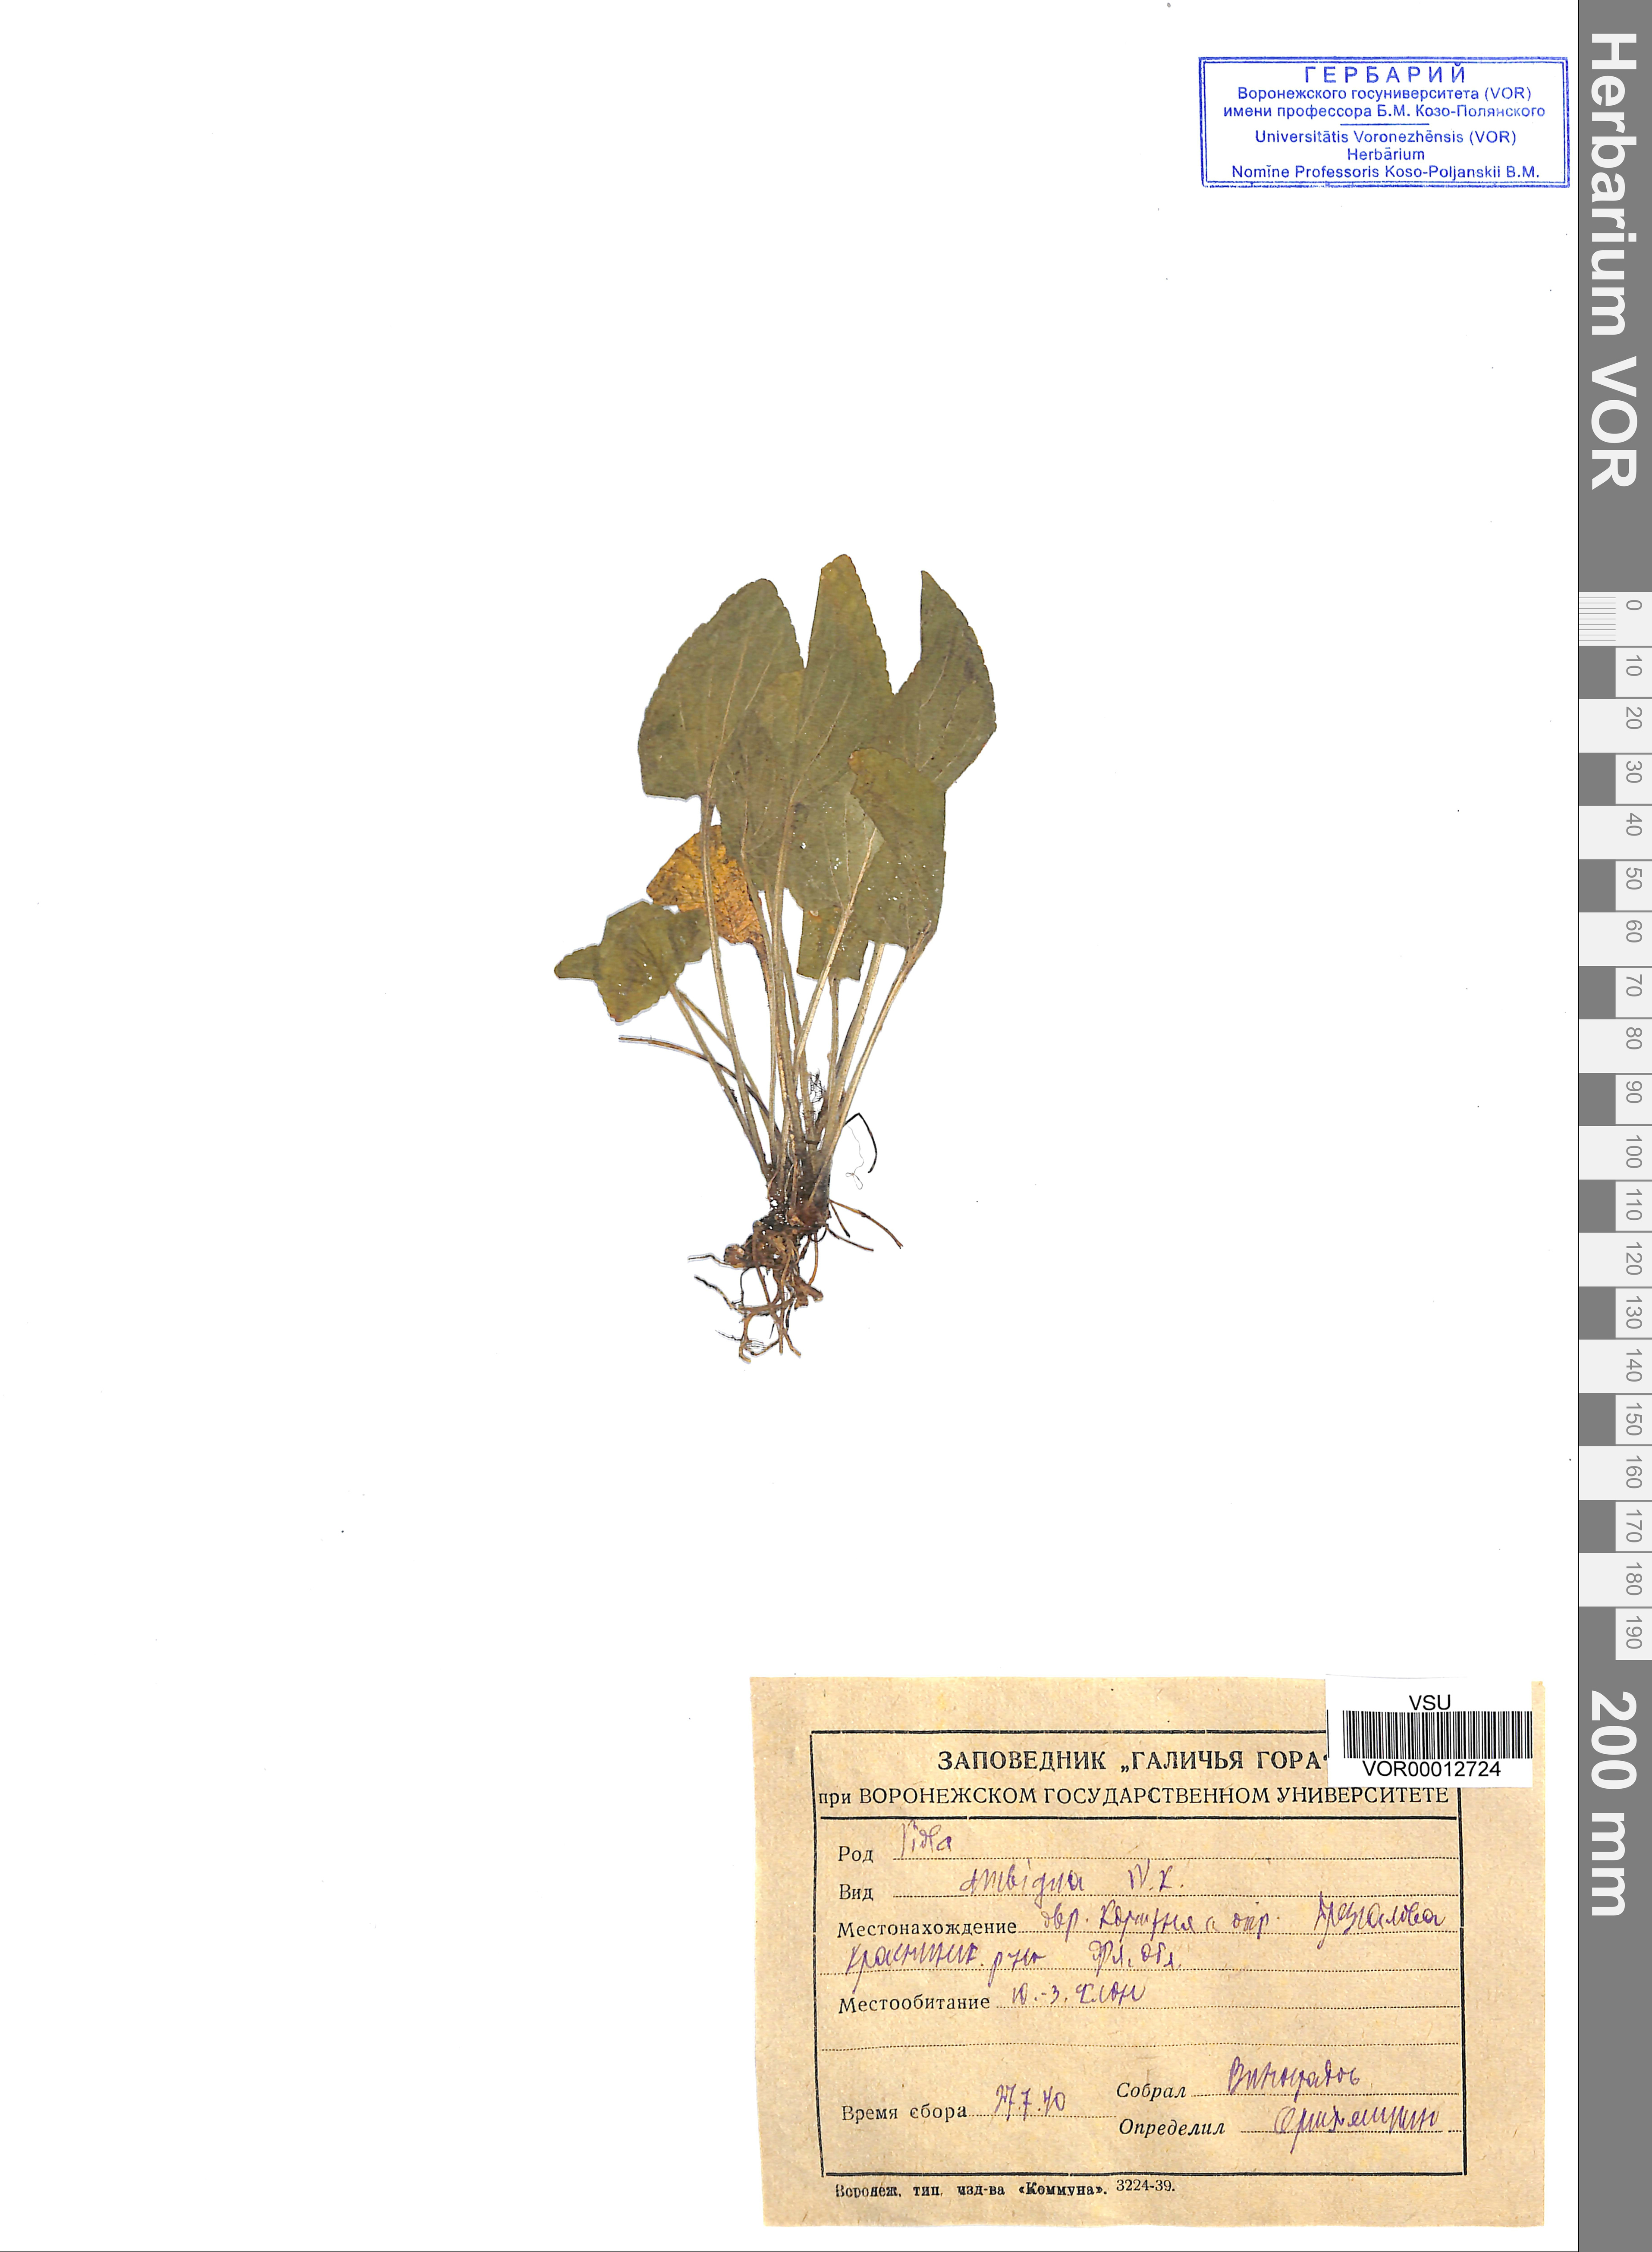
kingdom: Plantae
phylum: Tracheophyta
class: Magnoliopsida
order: Malpighiales
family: Violaceae
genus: Viola
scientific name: Viola ambigua
